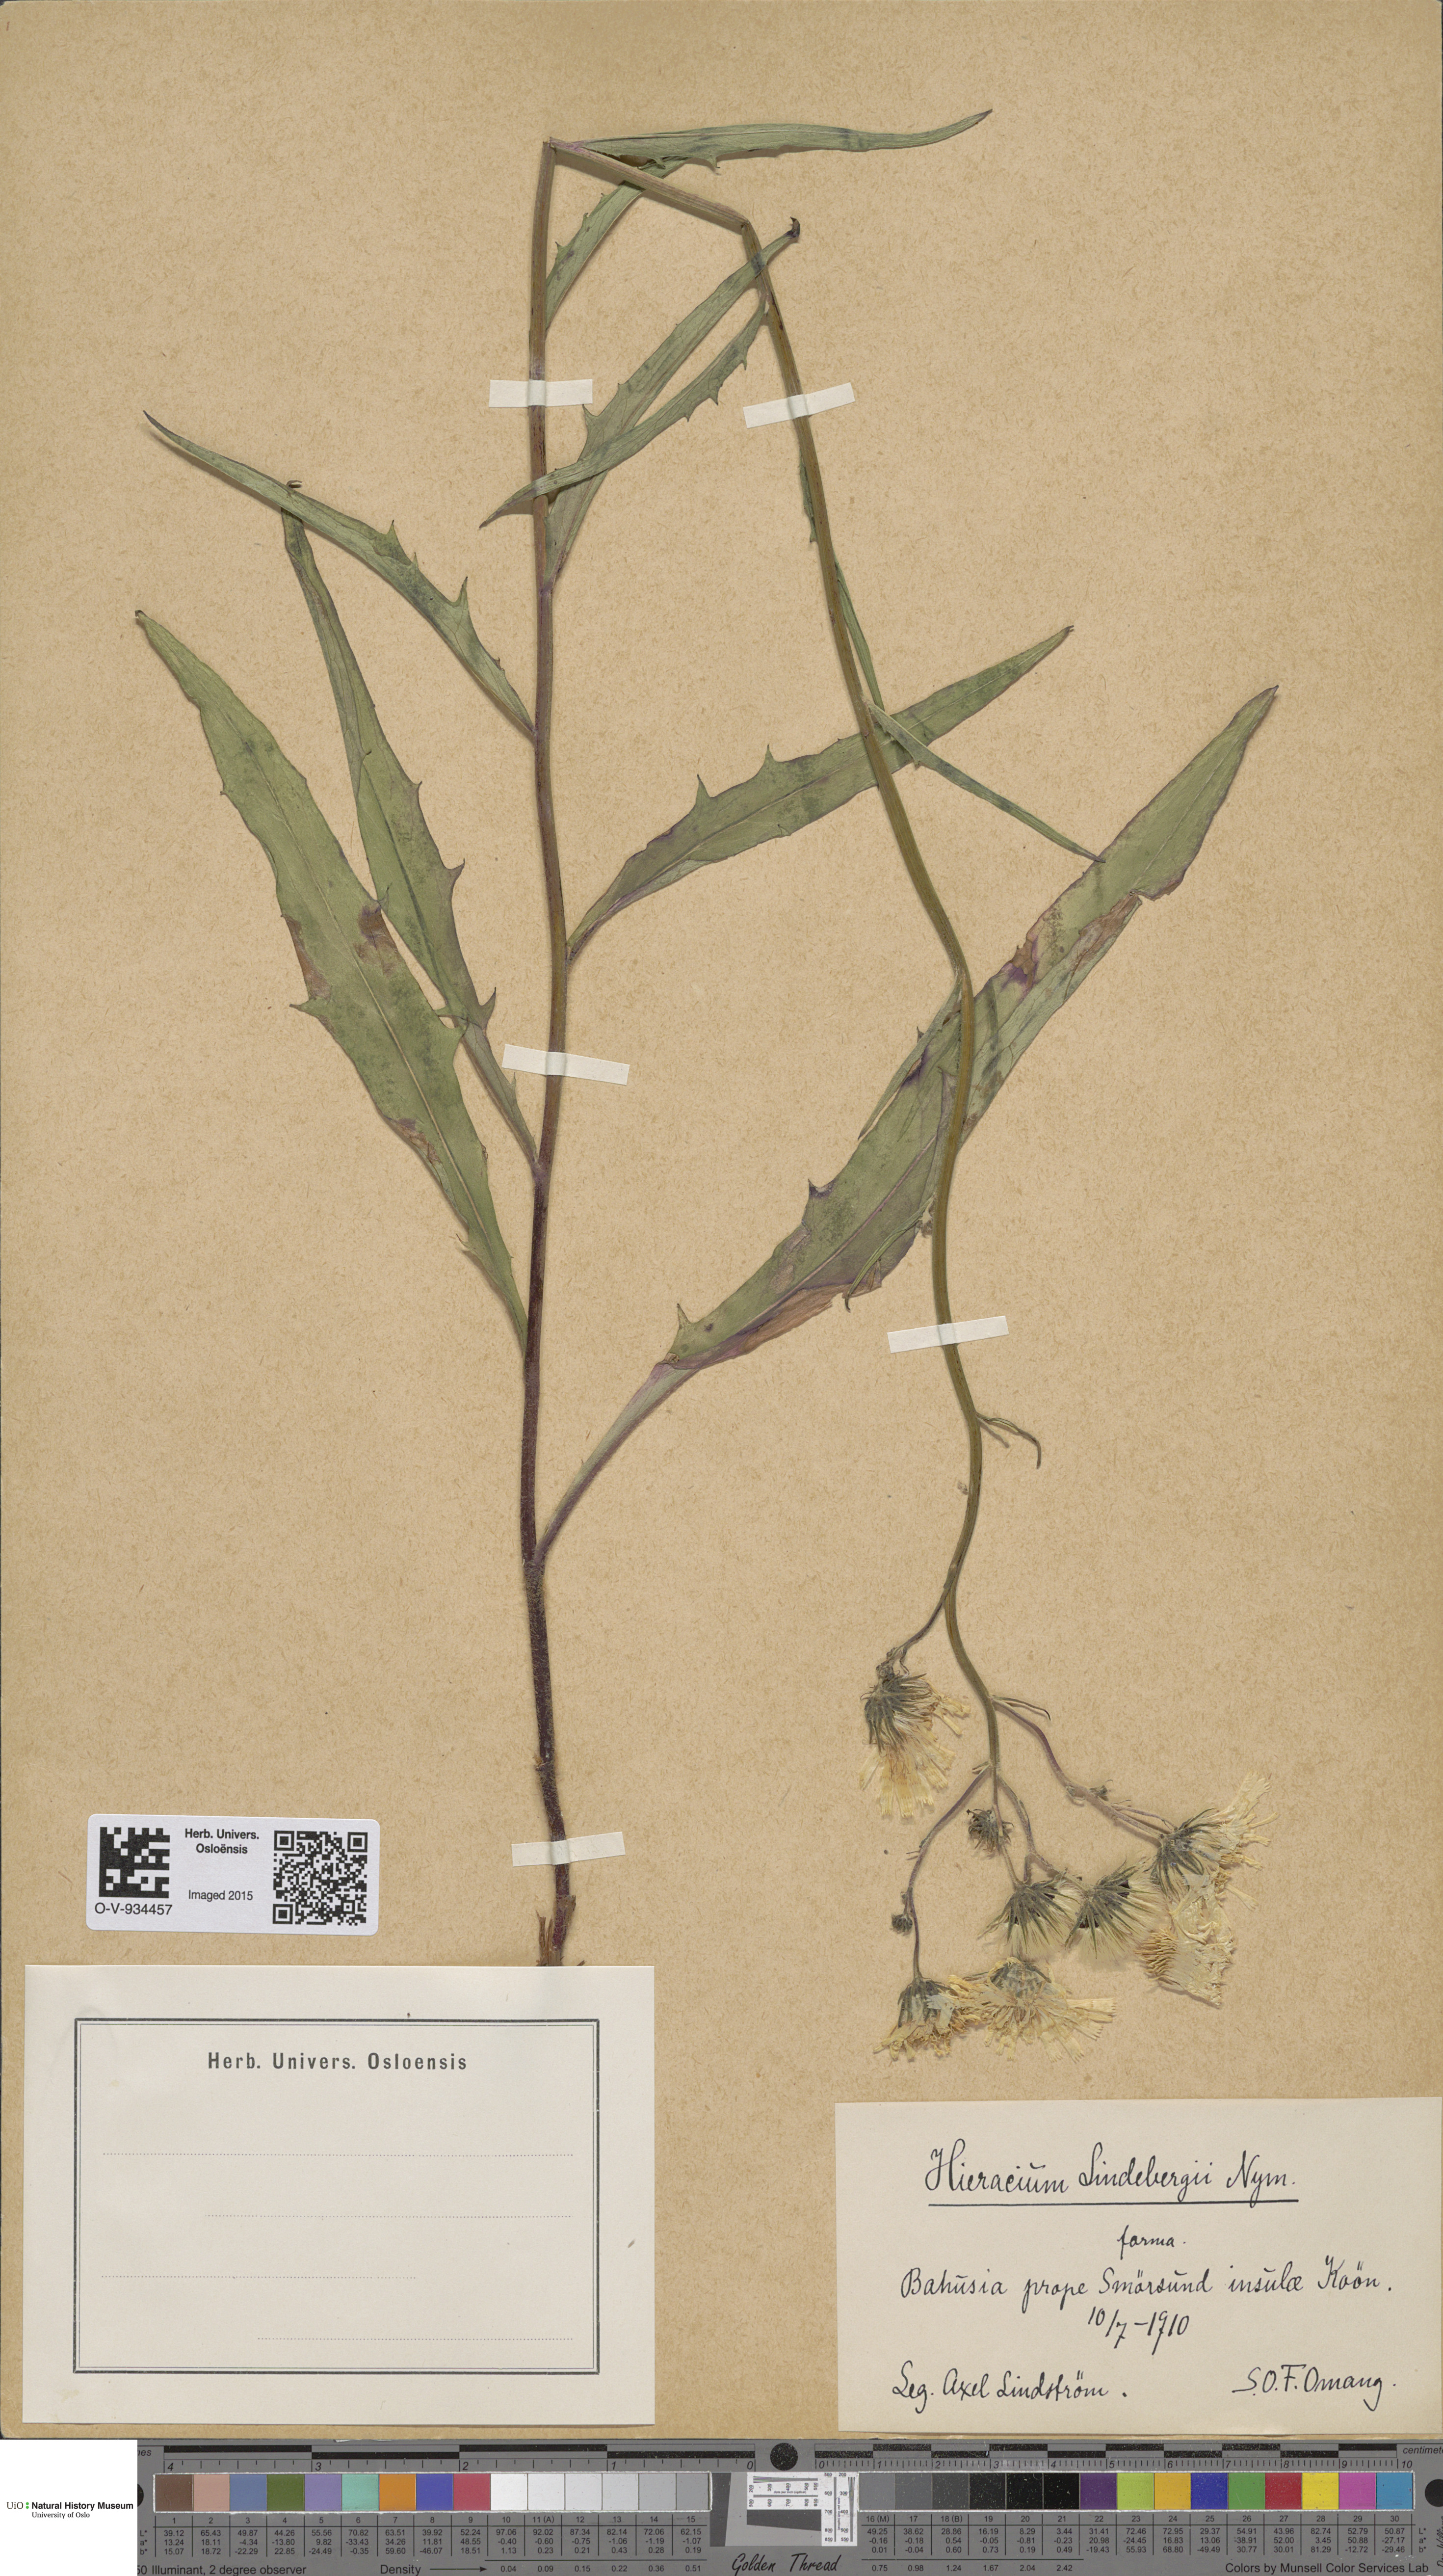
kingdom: Plantae
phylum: Tracheophyta
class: Magnoliopsida
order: Asterales
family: Asteraceae
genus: Hieracium
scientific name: Hieracium lindebergii
